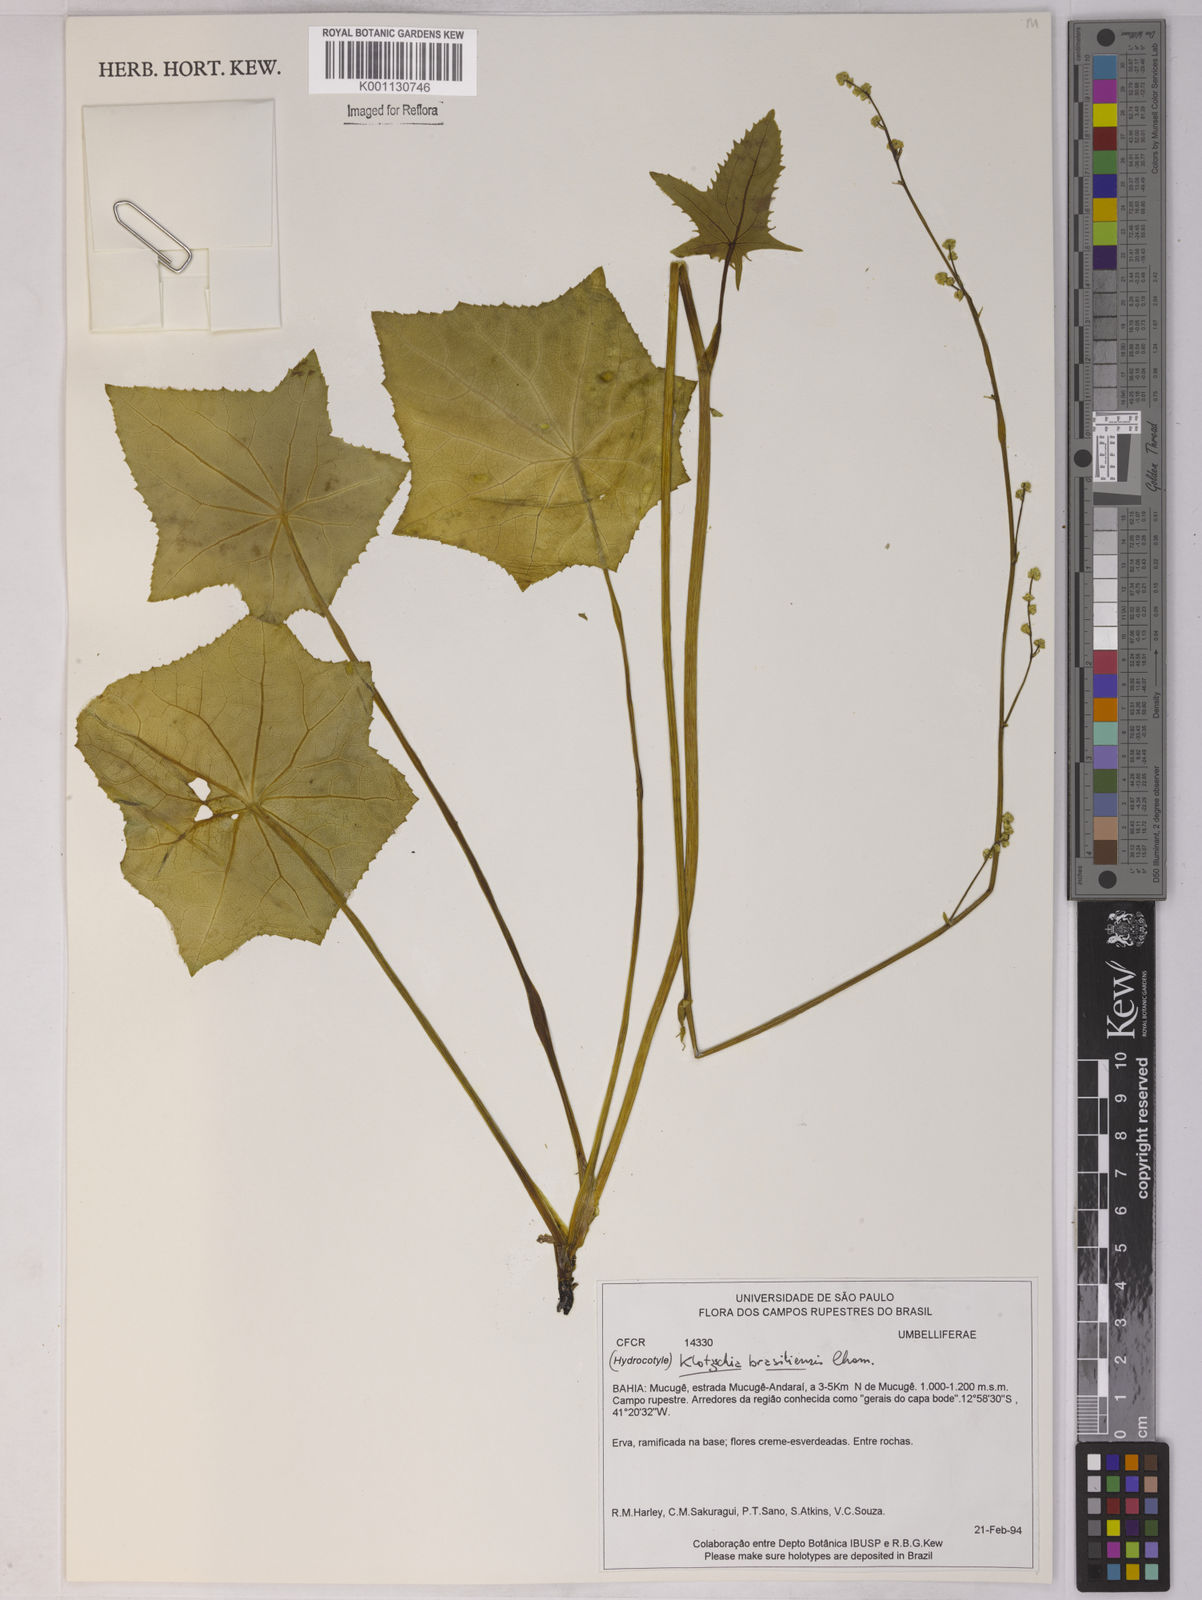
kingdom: Plantae
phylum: Tracheophyta
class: Magnoliopsida
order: Apiales
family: Apiaceae
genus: Klotzschia
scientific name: Klotzschia brasiliensis
